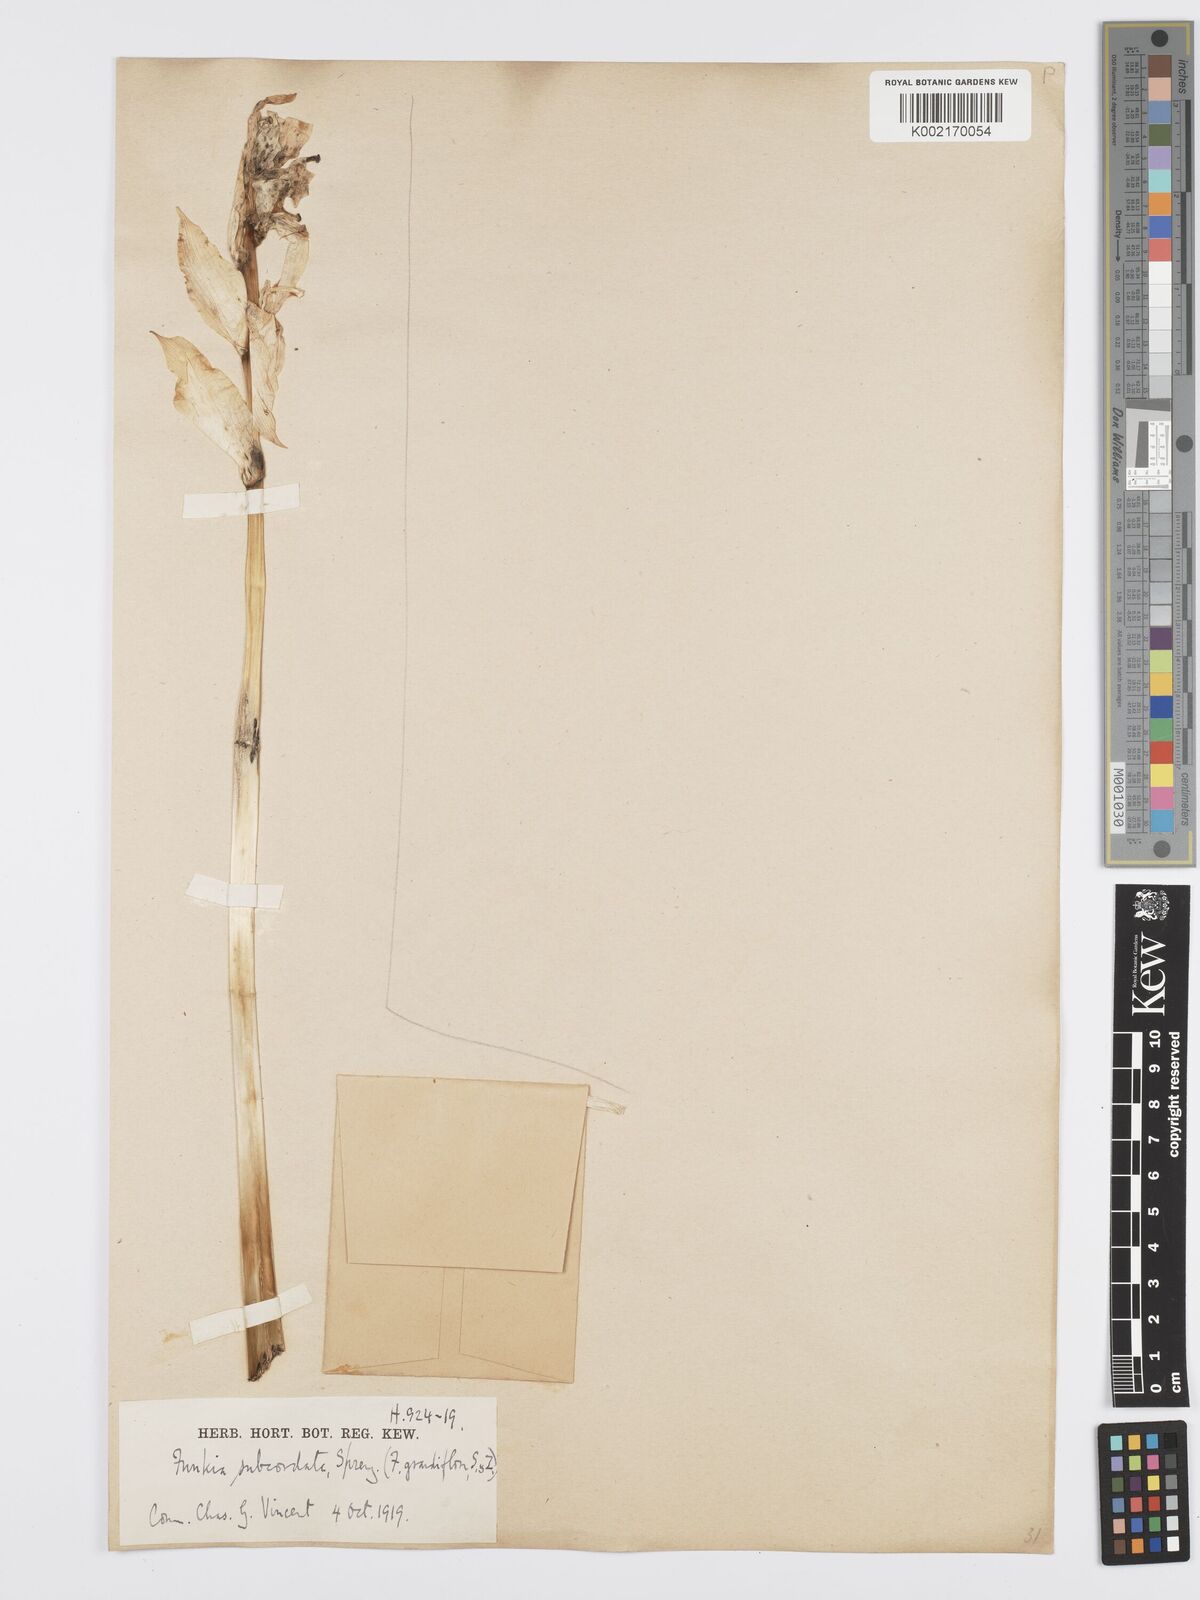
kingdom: Plantae
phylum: Tracheophyta
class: Liliopsida
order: Asparagales
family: Asparagaceae
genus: Hosta
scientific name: Hosta plantaginea
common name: August-lily
